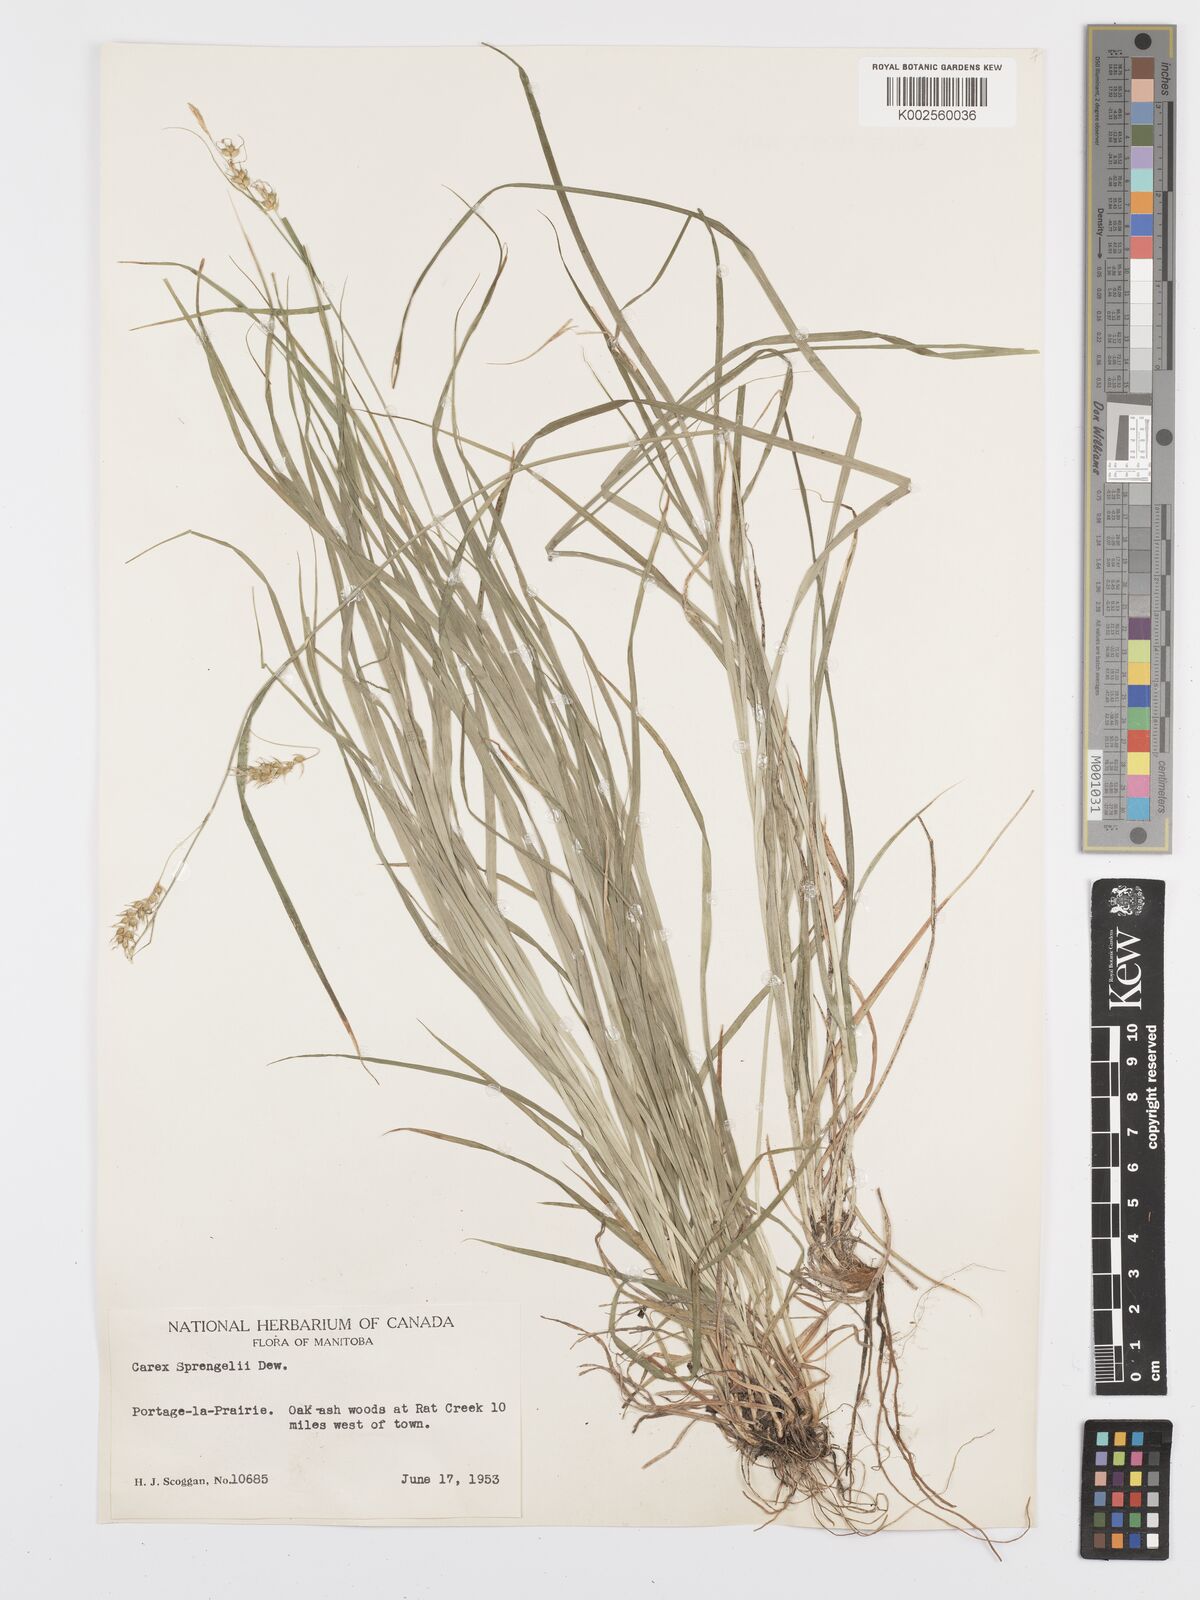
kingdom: Plantae
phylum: Tracheophyta
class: Liliopsida
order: Poales
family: Cyperaceae
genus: Carex
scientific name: Carex sprengelii
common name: Long-beaked sedge
